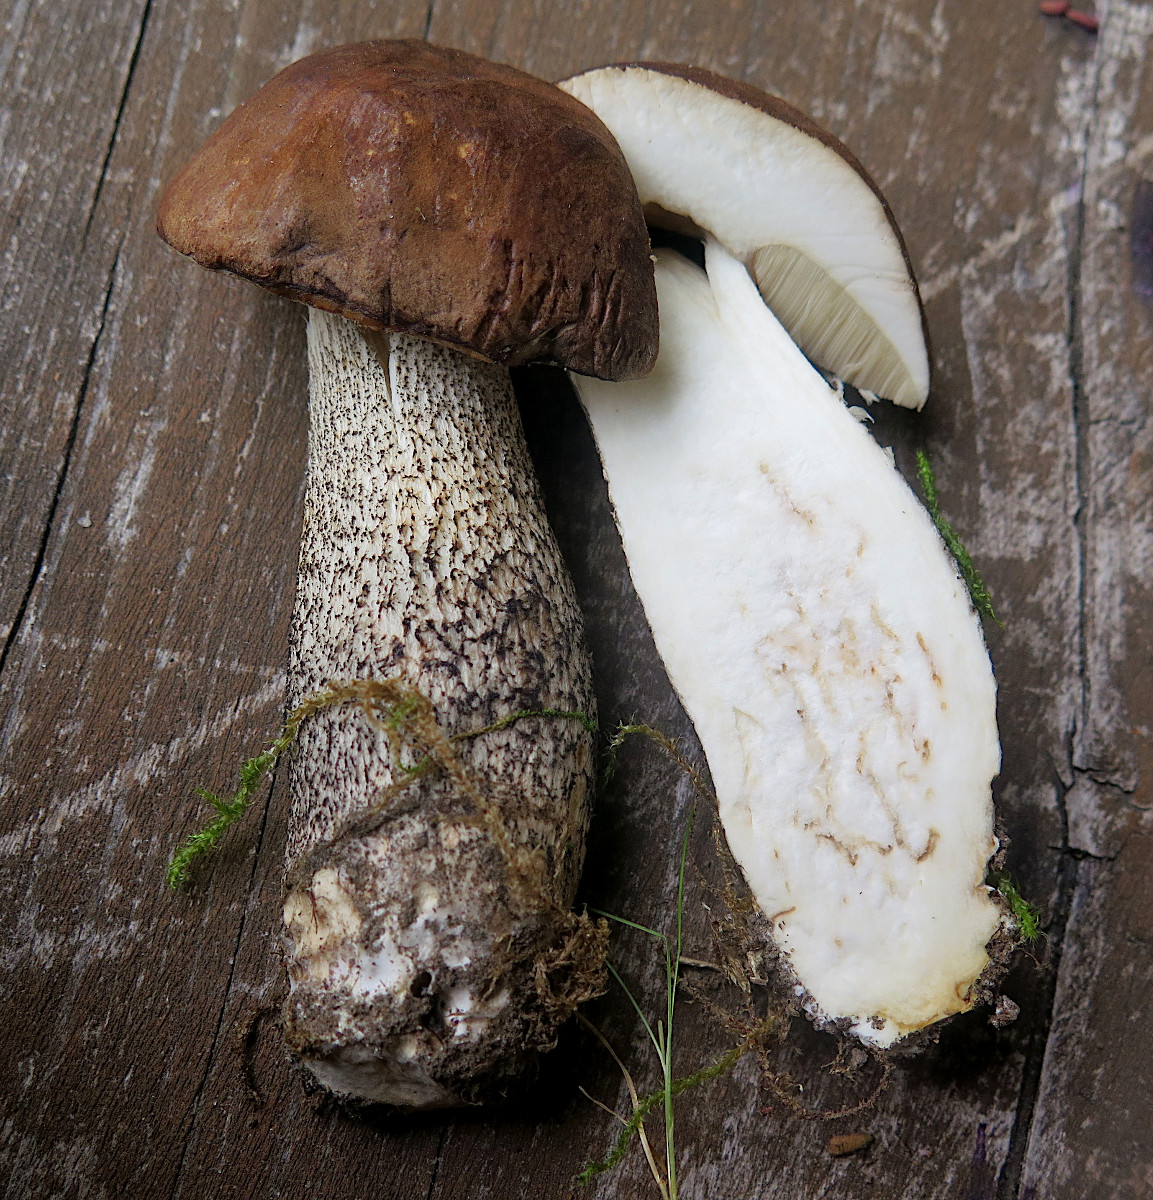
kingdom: Fungi
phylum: Basidiomycota
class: Agaricomycetes
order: Boletales
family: Boletaceae
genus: Leccinum
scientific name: Leccinum scabrum
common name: brun skælrørhat
